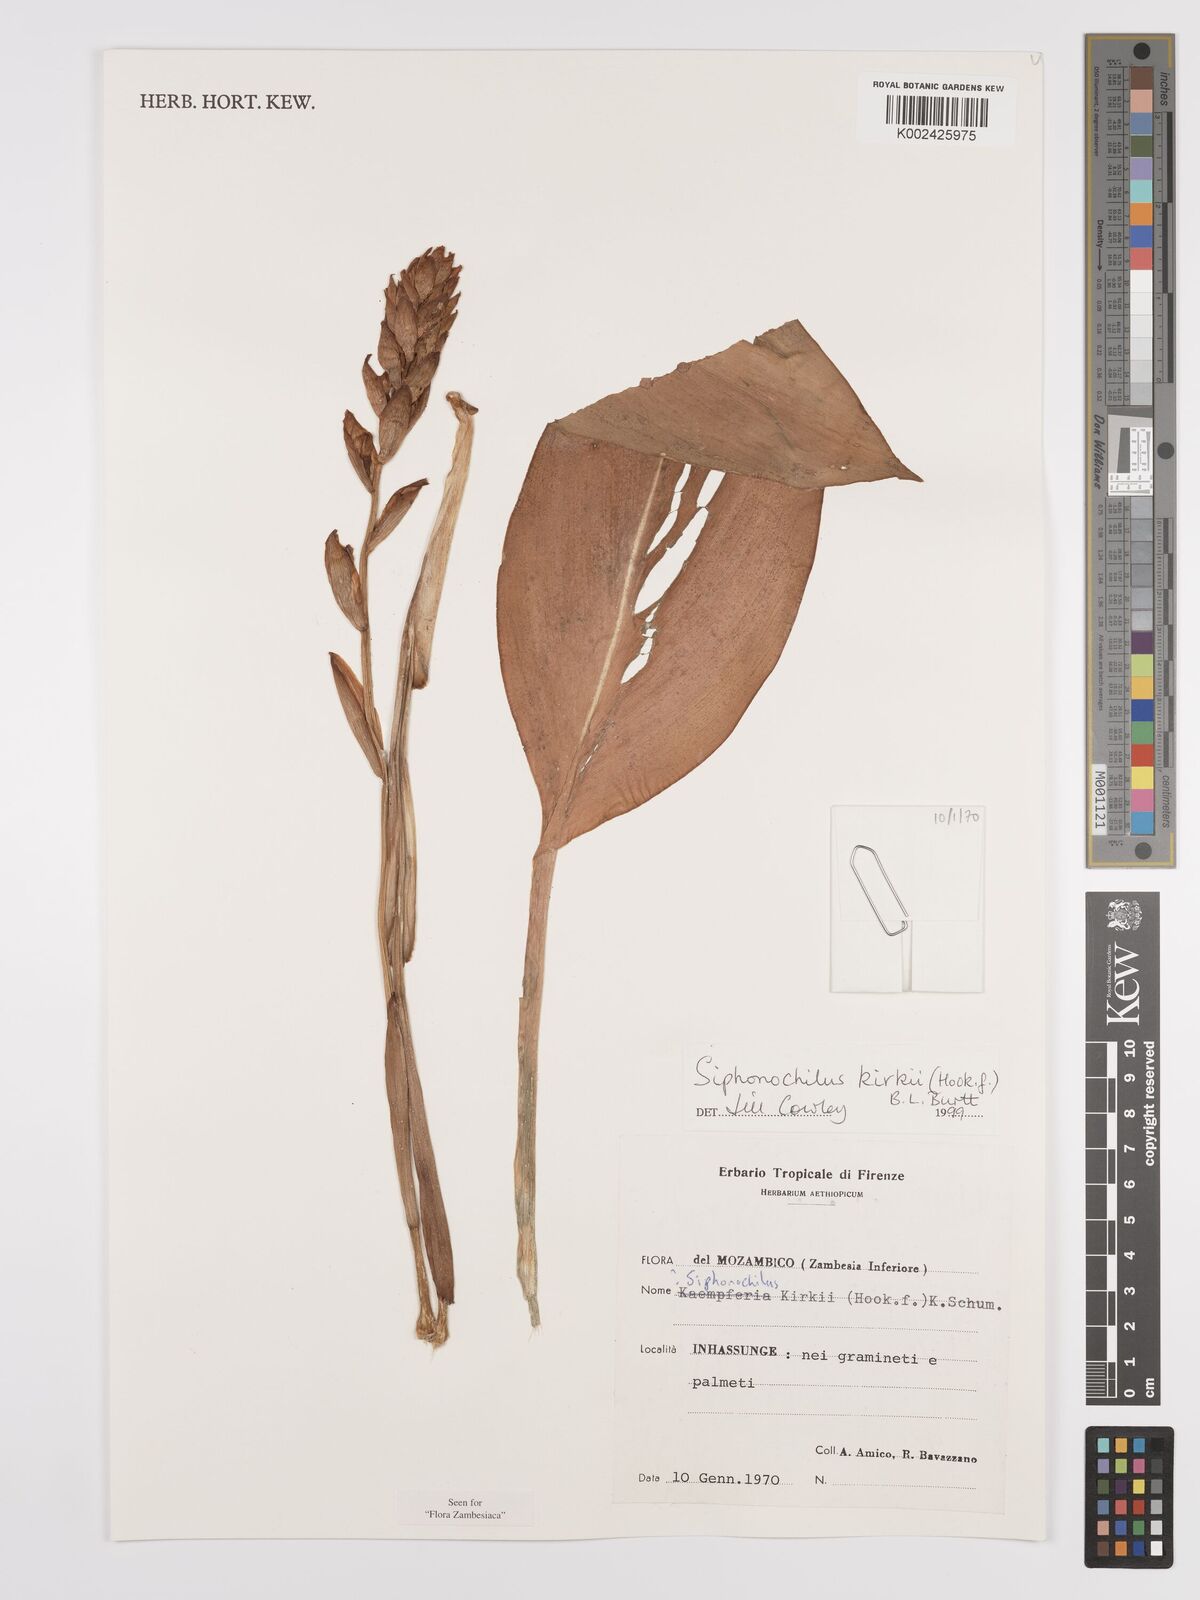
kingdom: Plantae
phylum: Tracheophyta
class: Liliopsida
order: Zingiberales
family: Zingiberaceae
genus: Siphonochilus
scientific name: Siphonochilus kirkii
